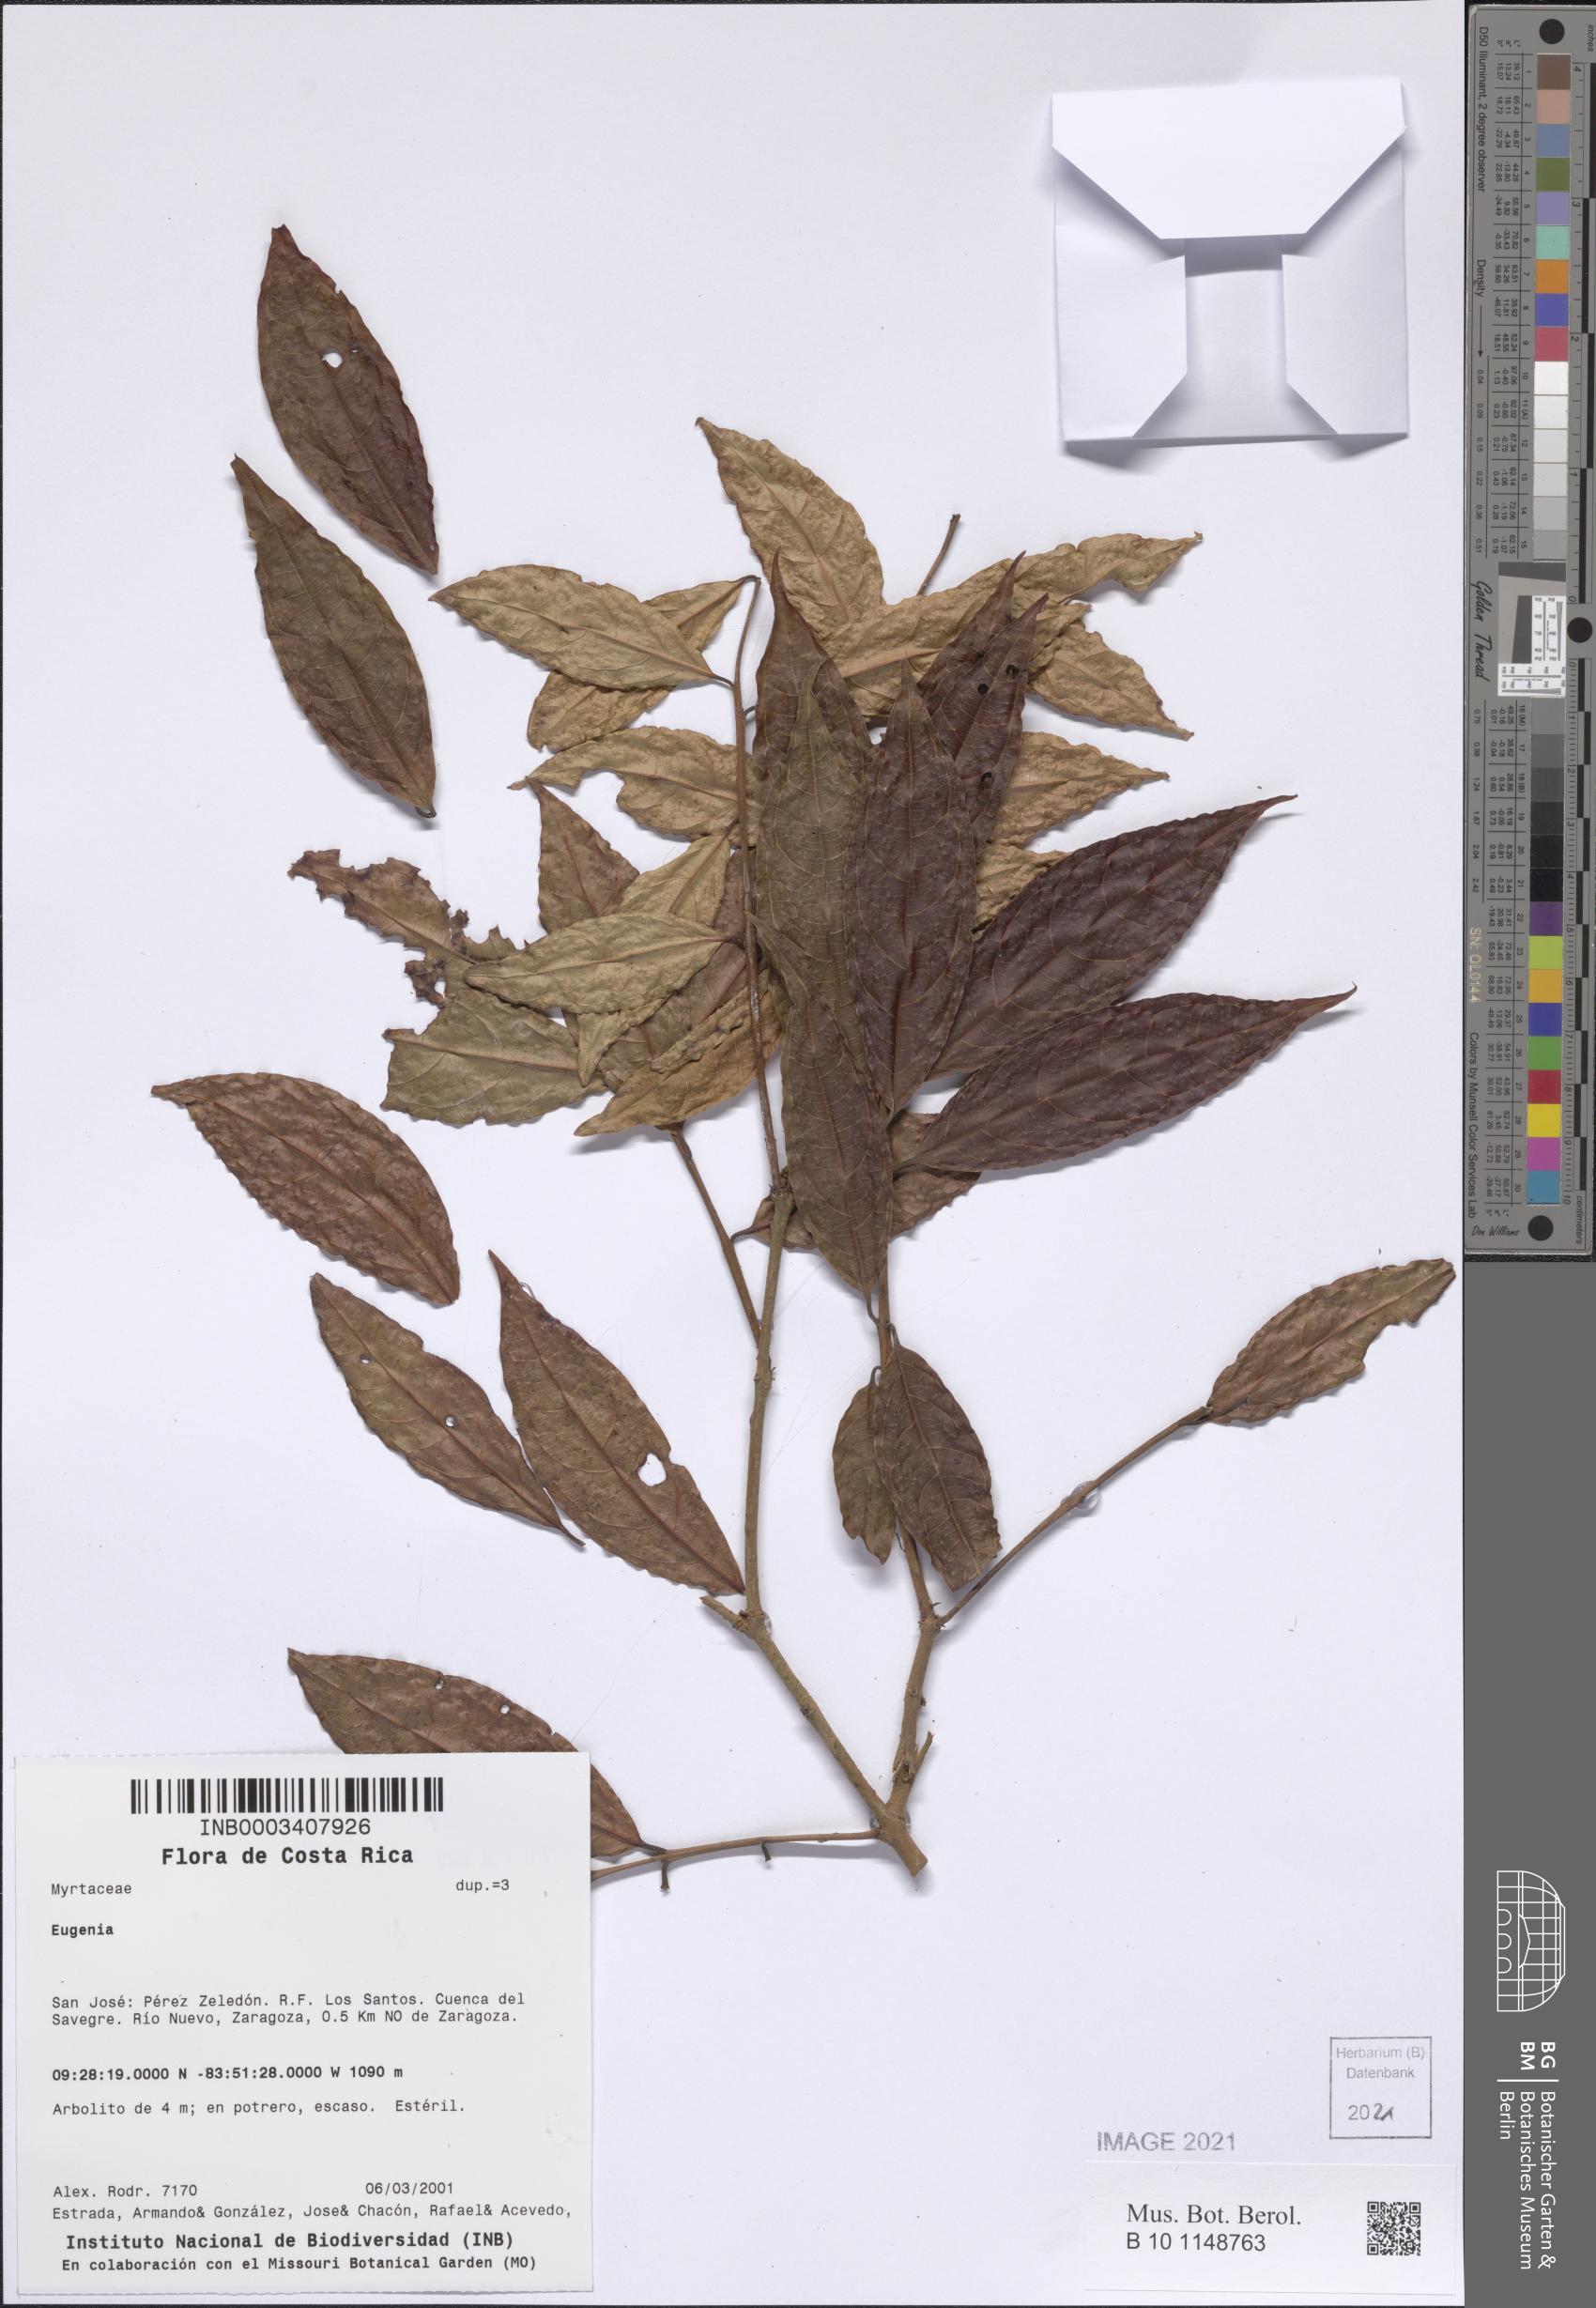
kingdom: Plantae
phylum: Tracheophyta
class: Magnoliopsida
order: Myrtales
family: Myrtaceae
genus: Eugenia
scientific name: Eugenia
